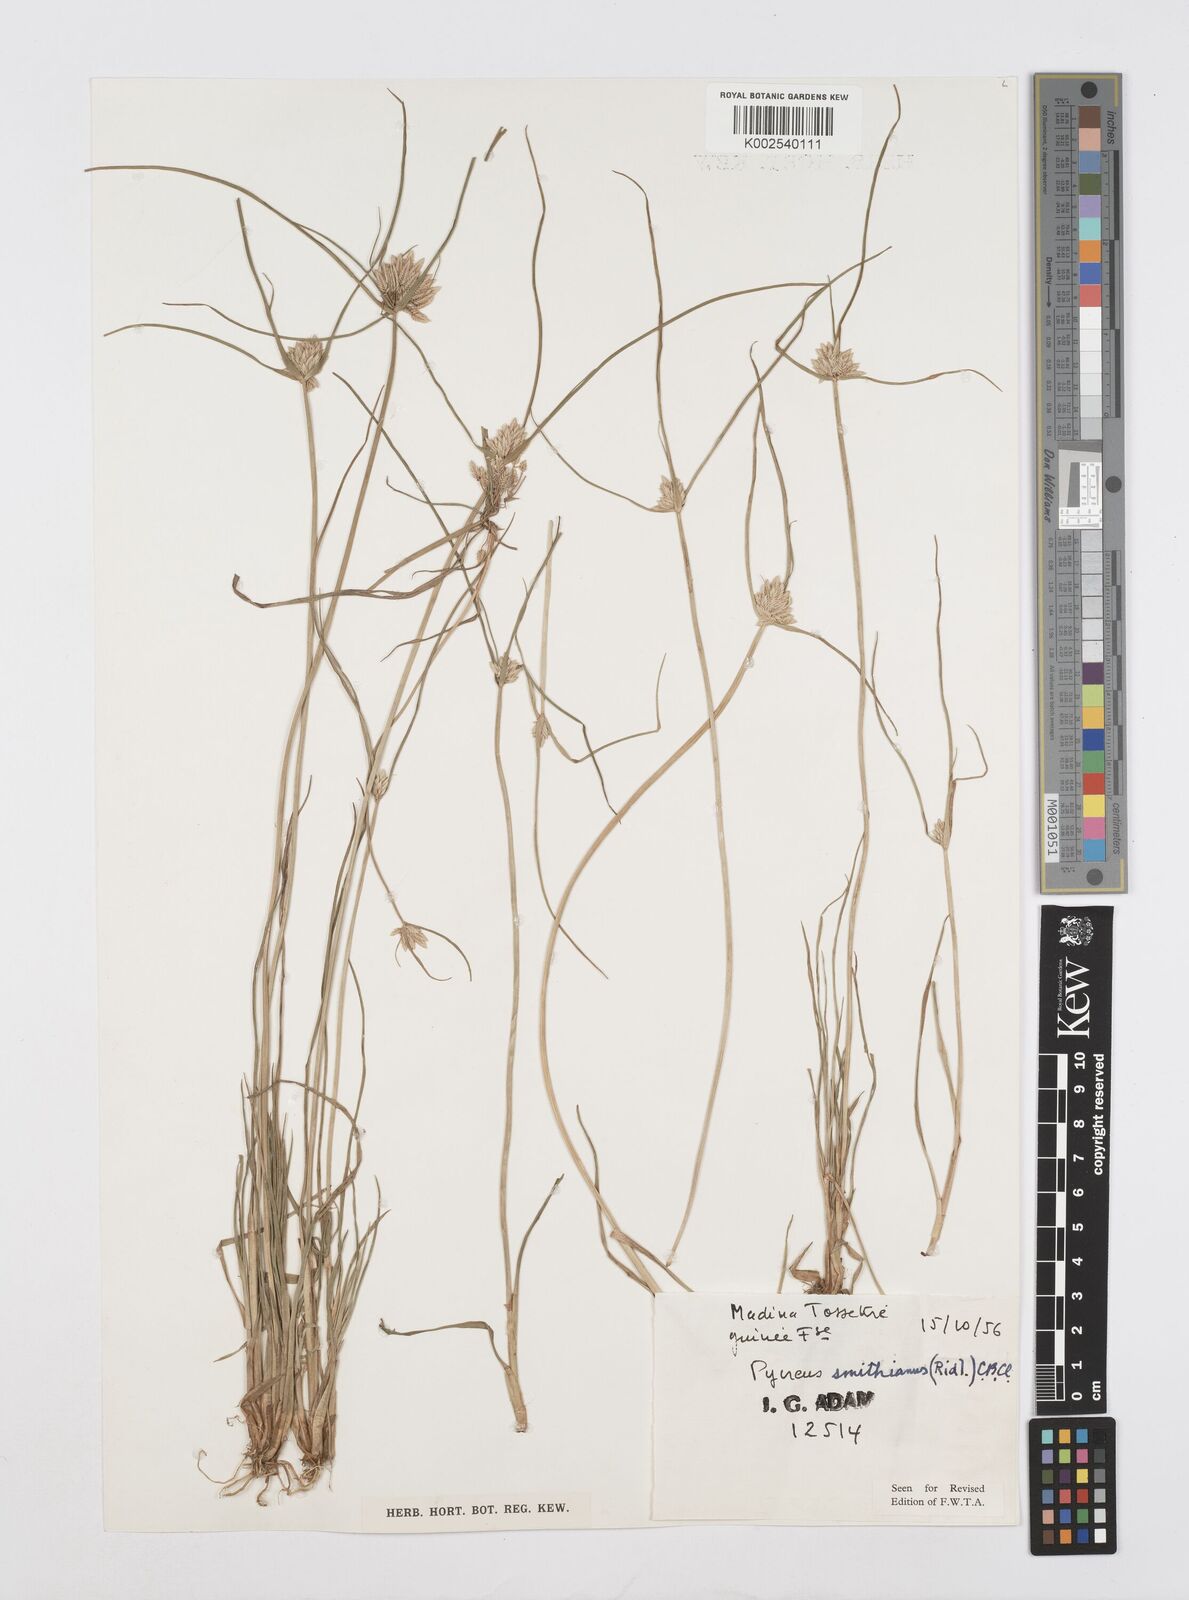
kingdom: Plantae
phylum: Tracheophyta
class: Liliopsida
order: Poales
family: Cyperaceae
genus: Cyperus
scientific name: Cyperus smithianus
